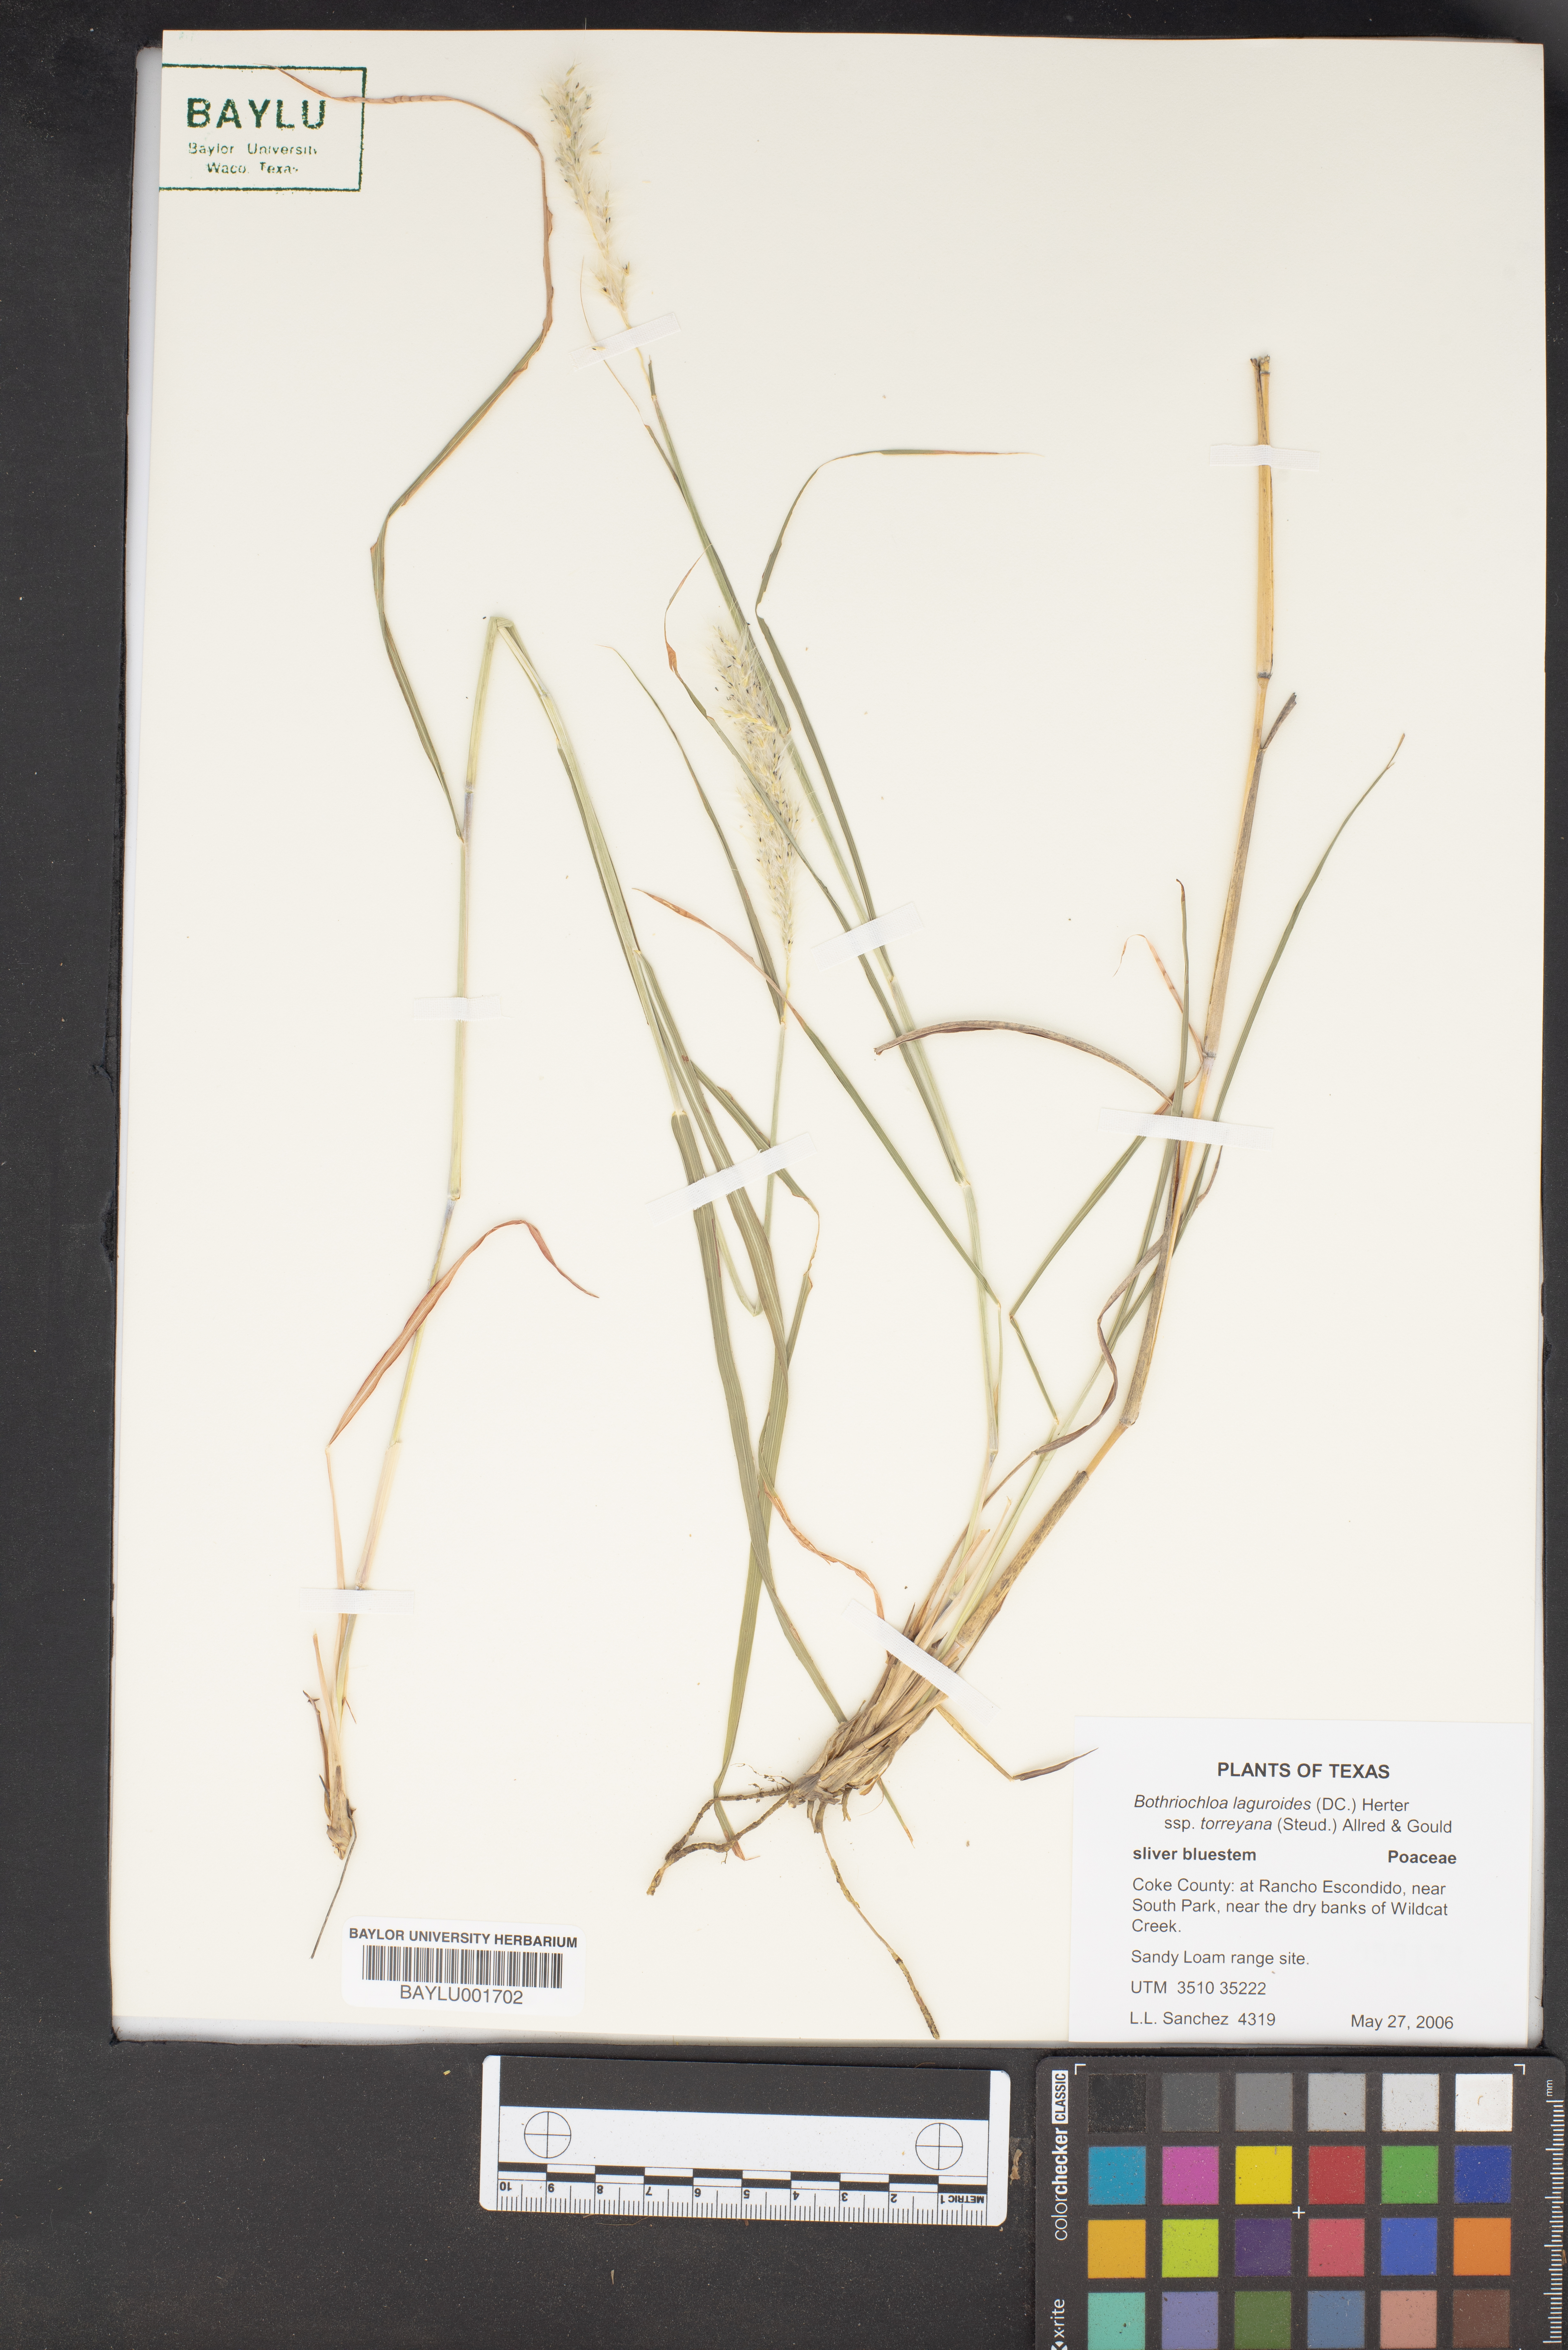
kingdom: Plantae
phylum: Tracheophyta
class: Liliopsida
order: Poales
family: Poaceae
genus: Bothriochloa
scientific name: Bothriochloa laguroides
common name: Silver bluestem
